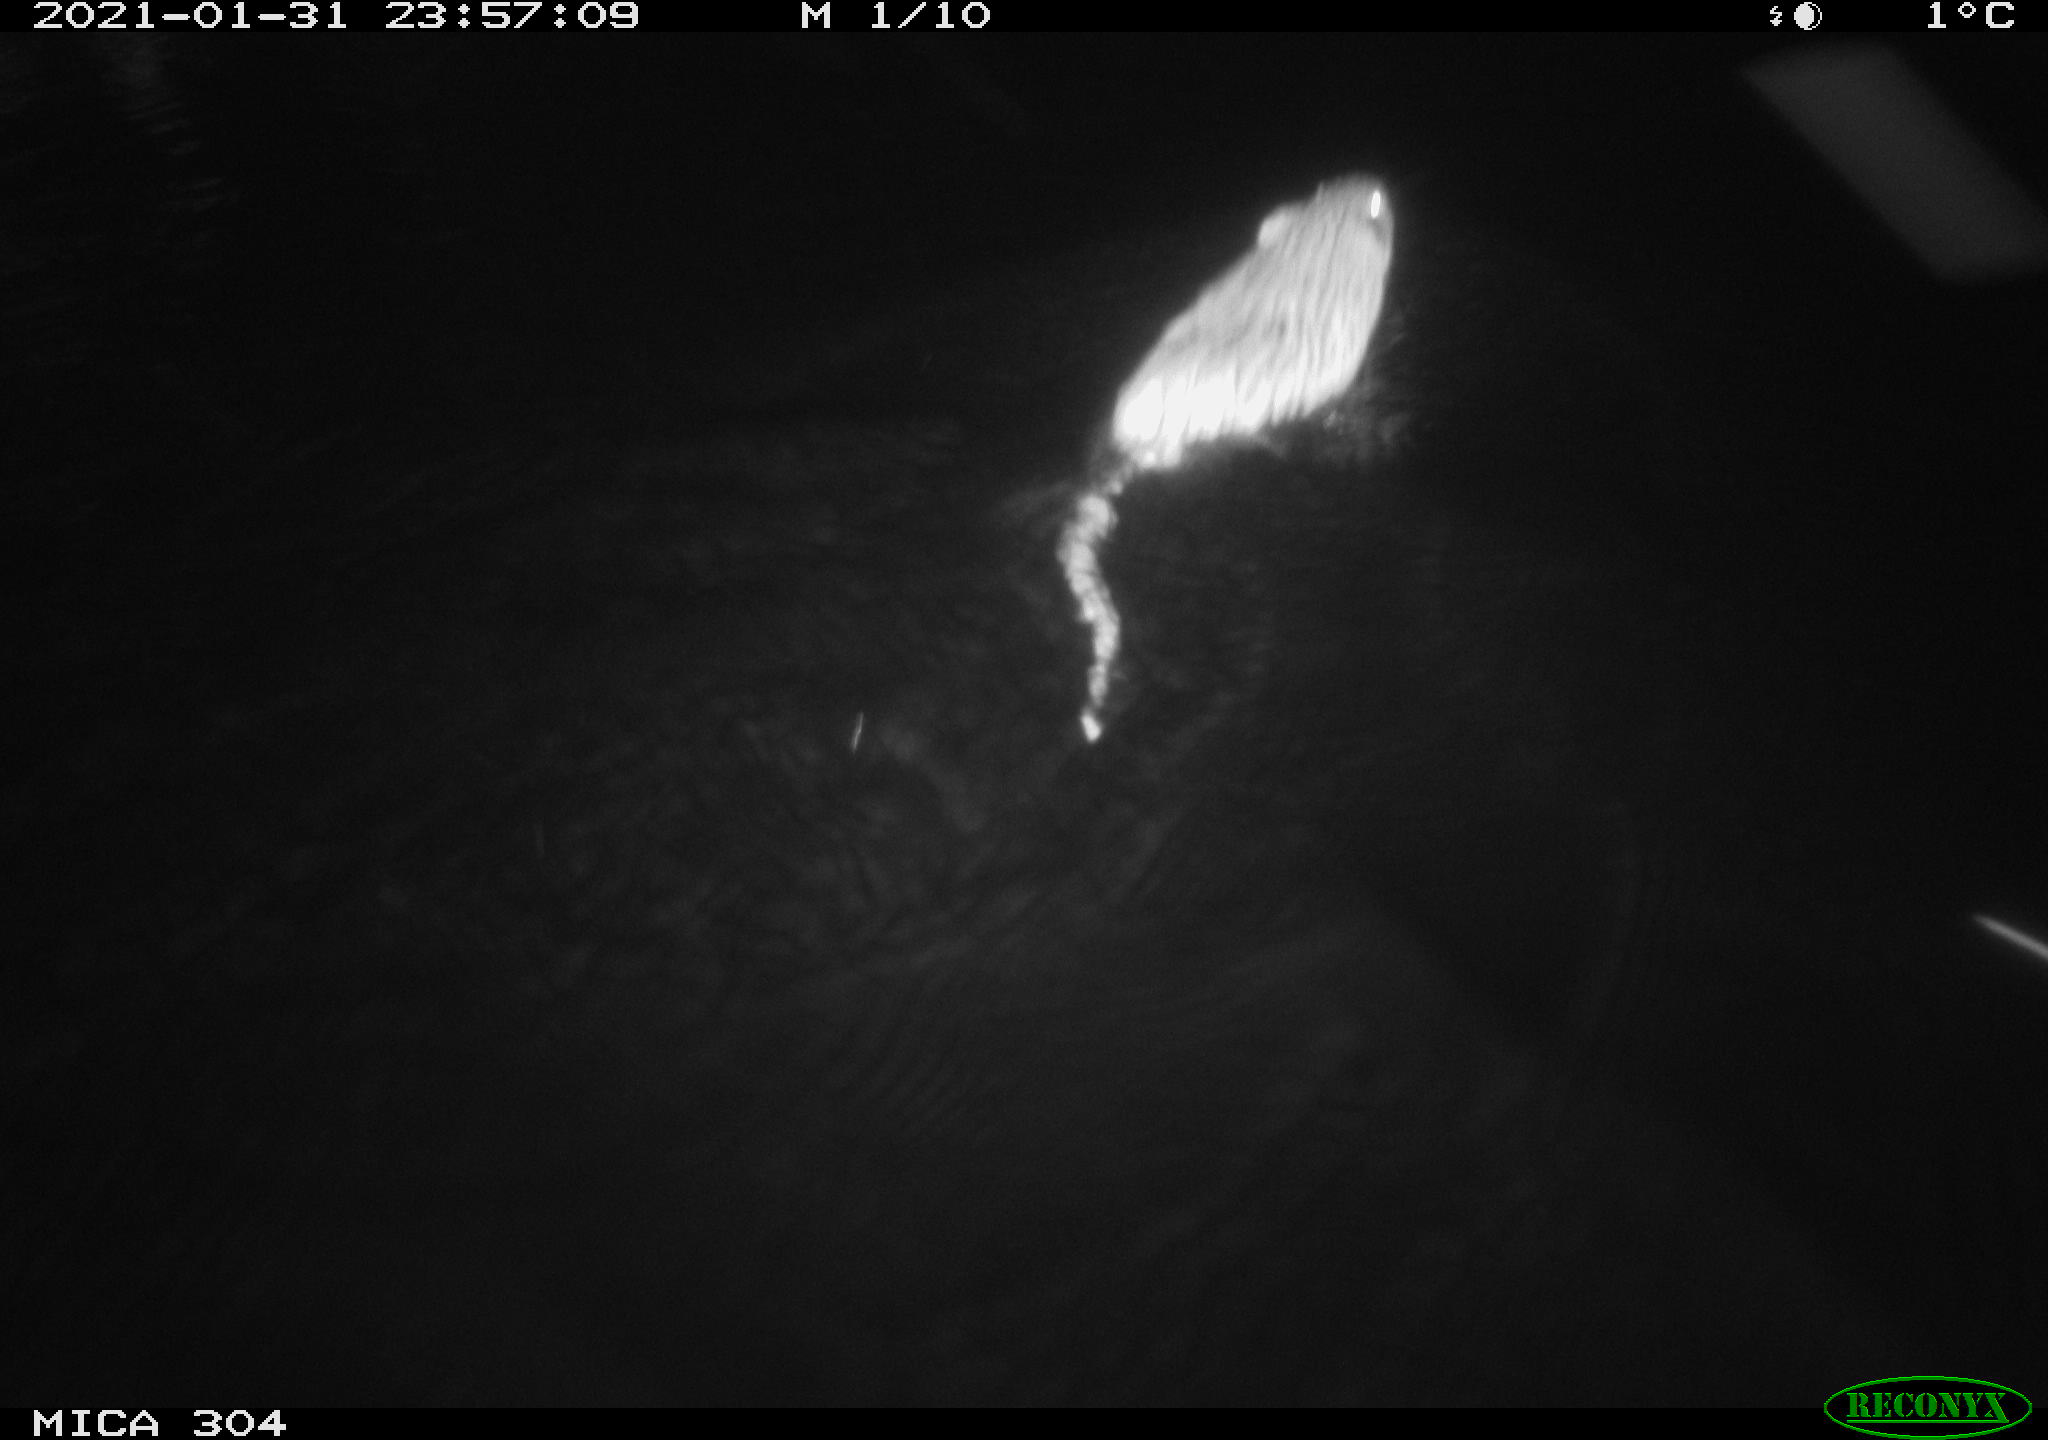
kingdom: Animalia
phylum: Chordata
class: Mammalia
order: Rodentia
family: Cricetidae
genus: Ondatra
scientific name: Ondatra zibethicus
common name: Muskrat
